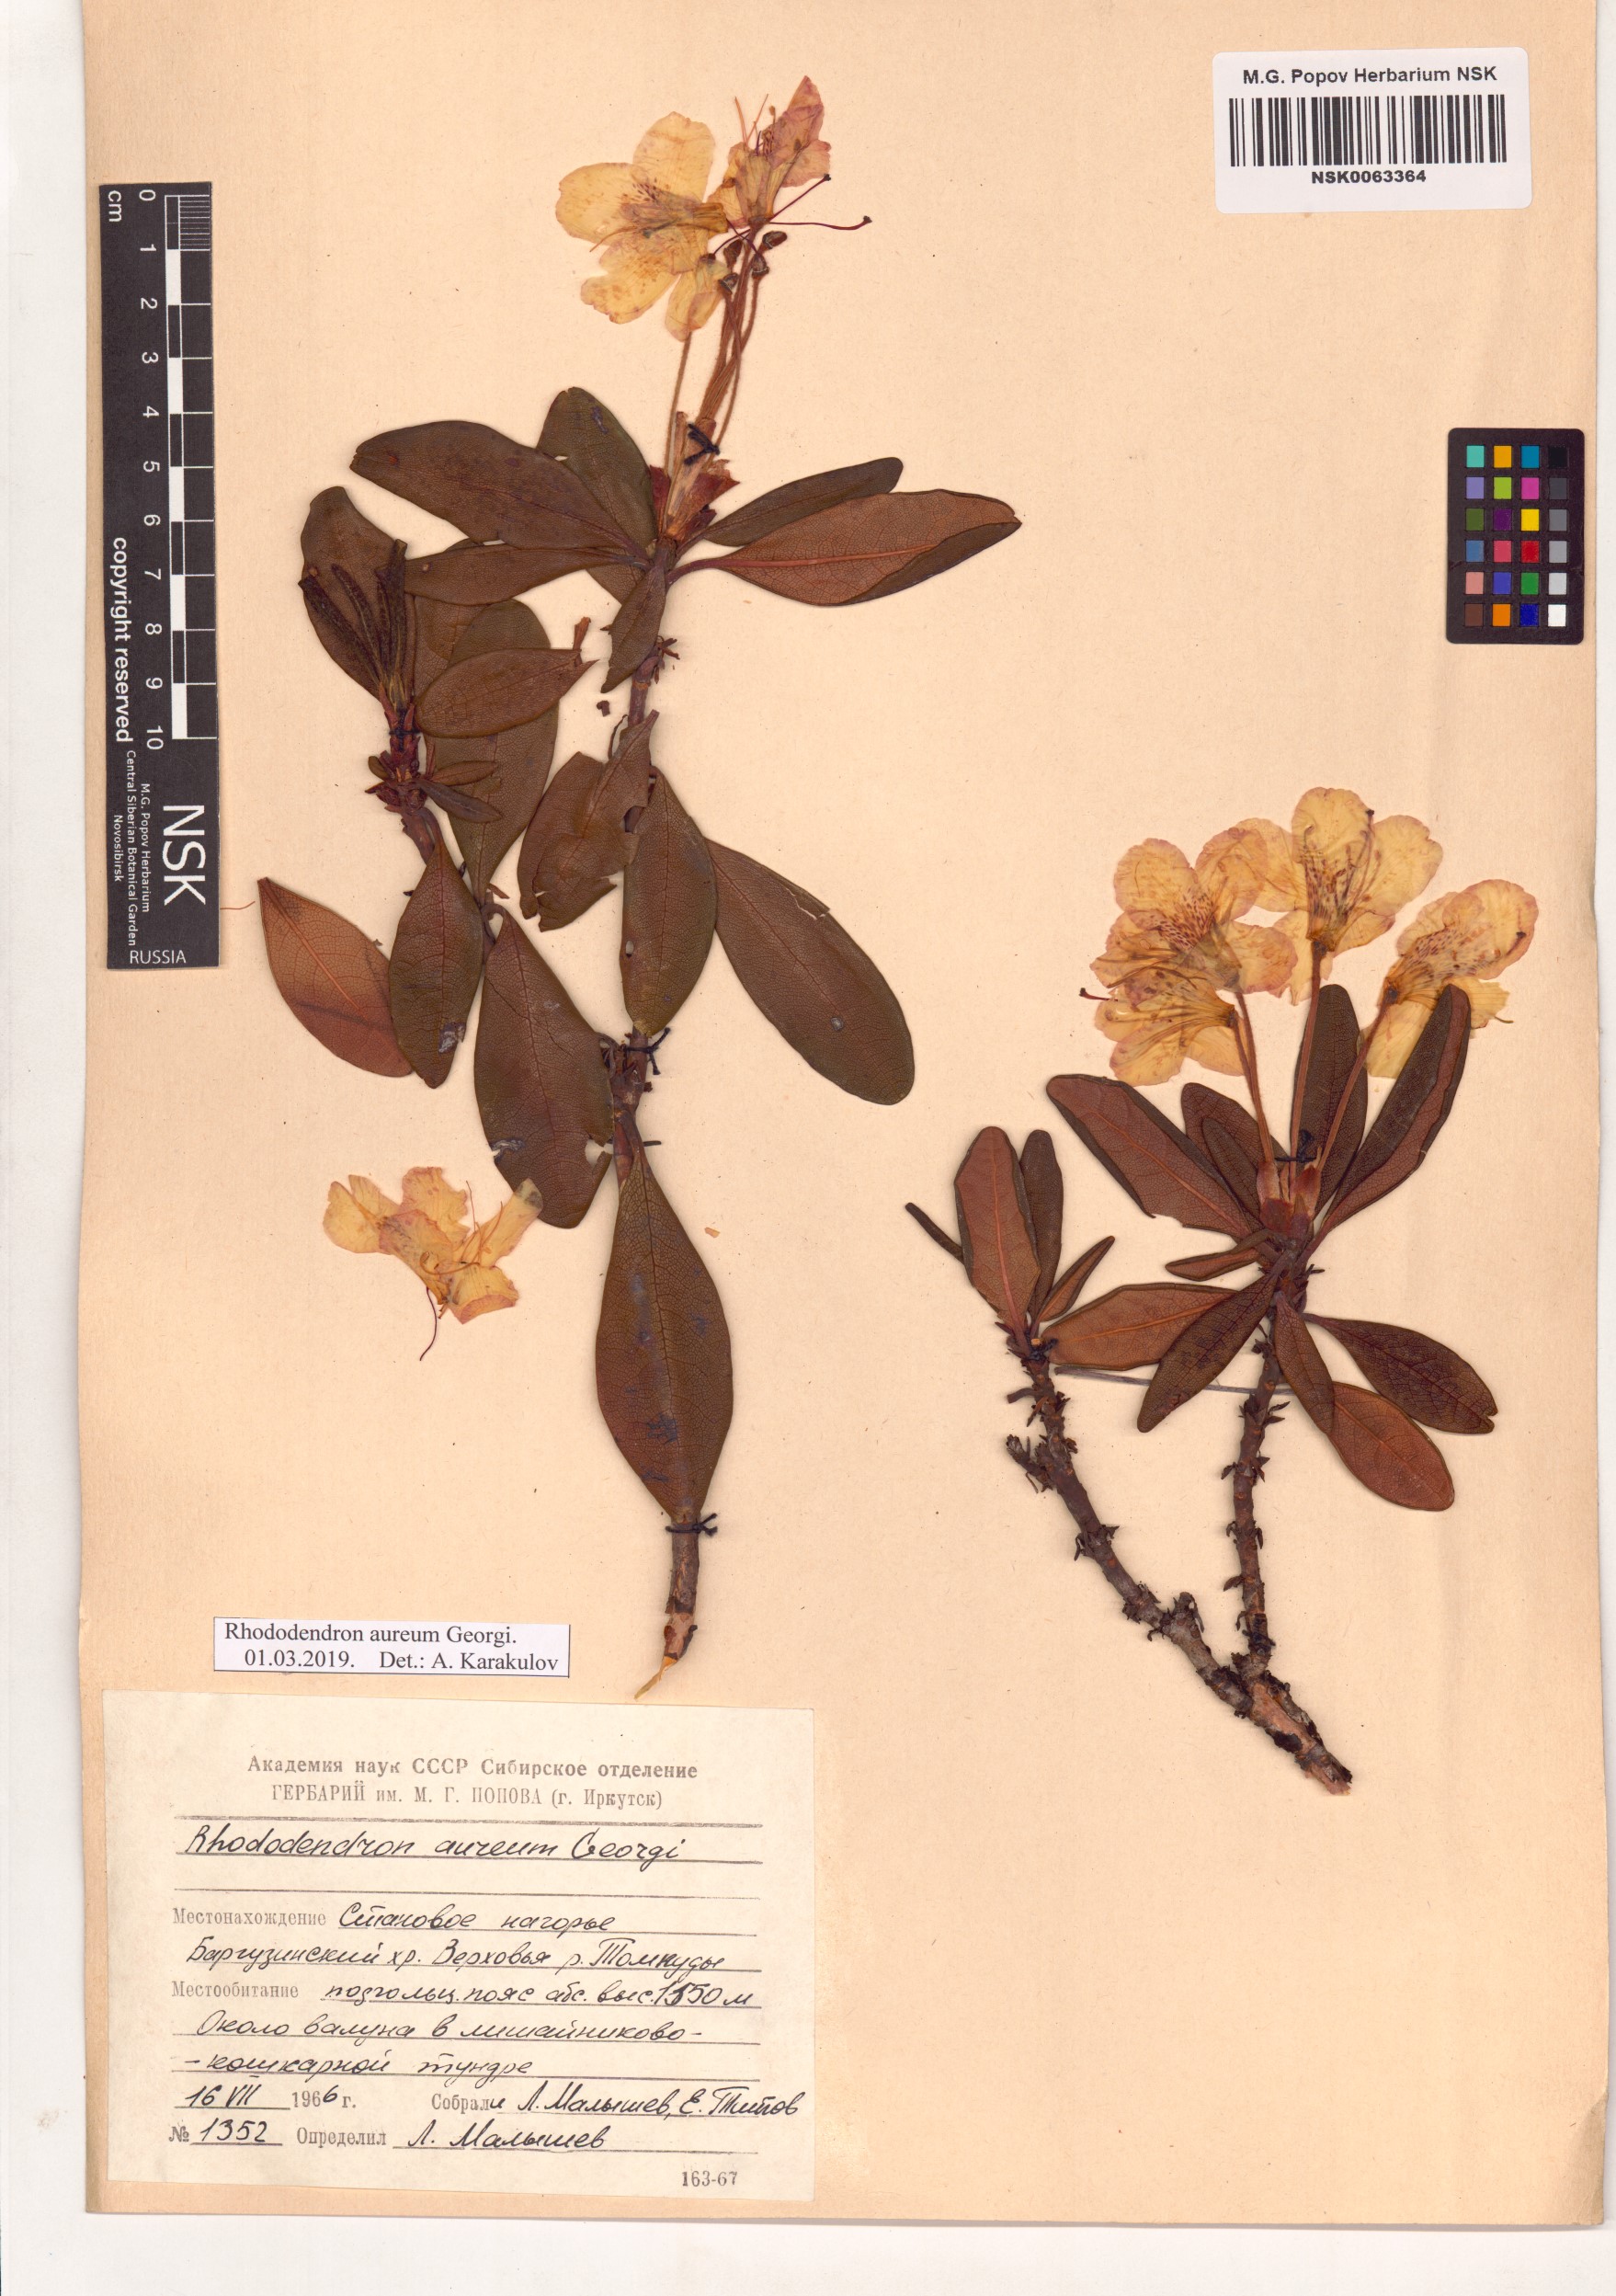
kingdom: Plantae
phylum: Tracheophyta
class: Magnoliopsida
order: Ericales
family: Ericaceae
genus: Rhododendron
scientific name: Rhododendron aureum
